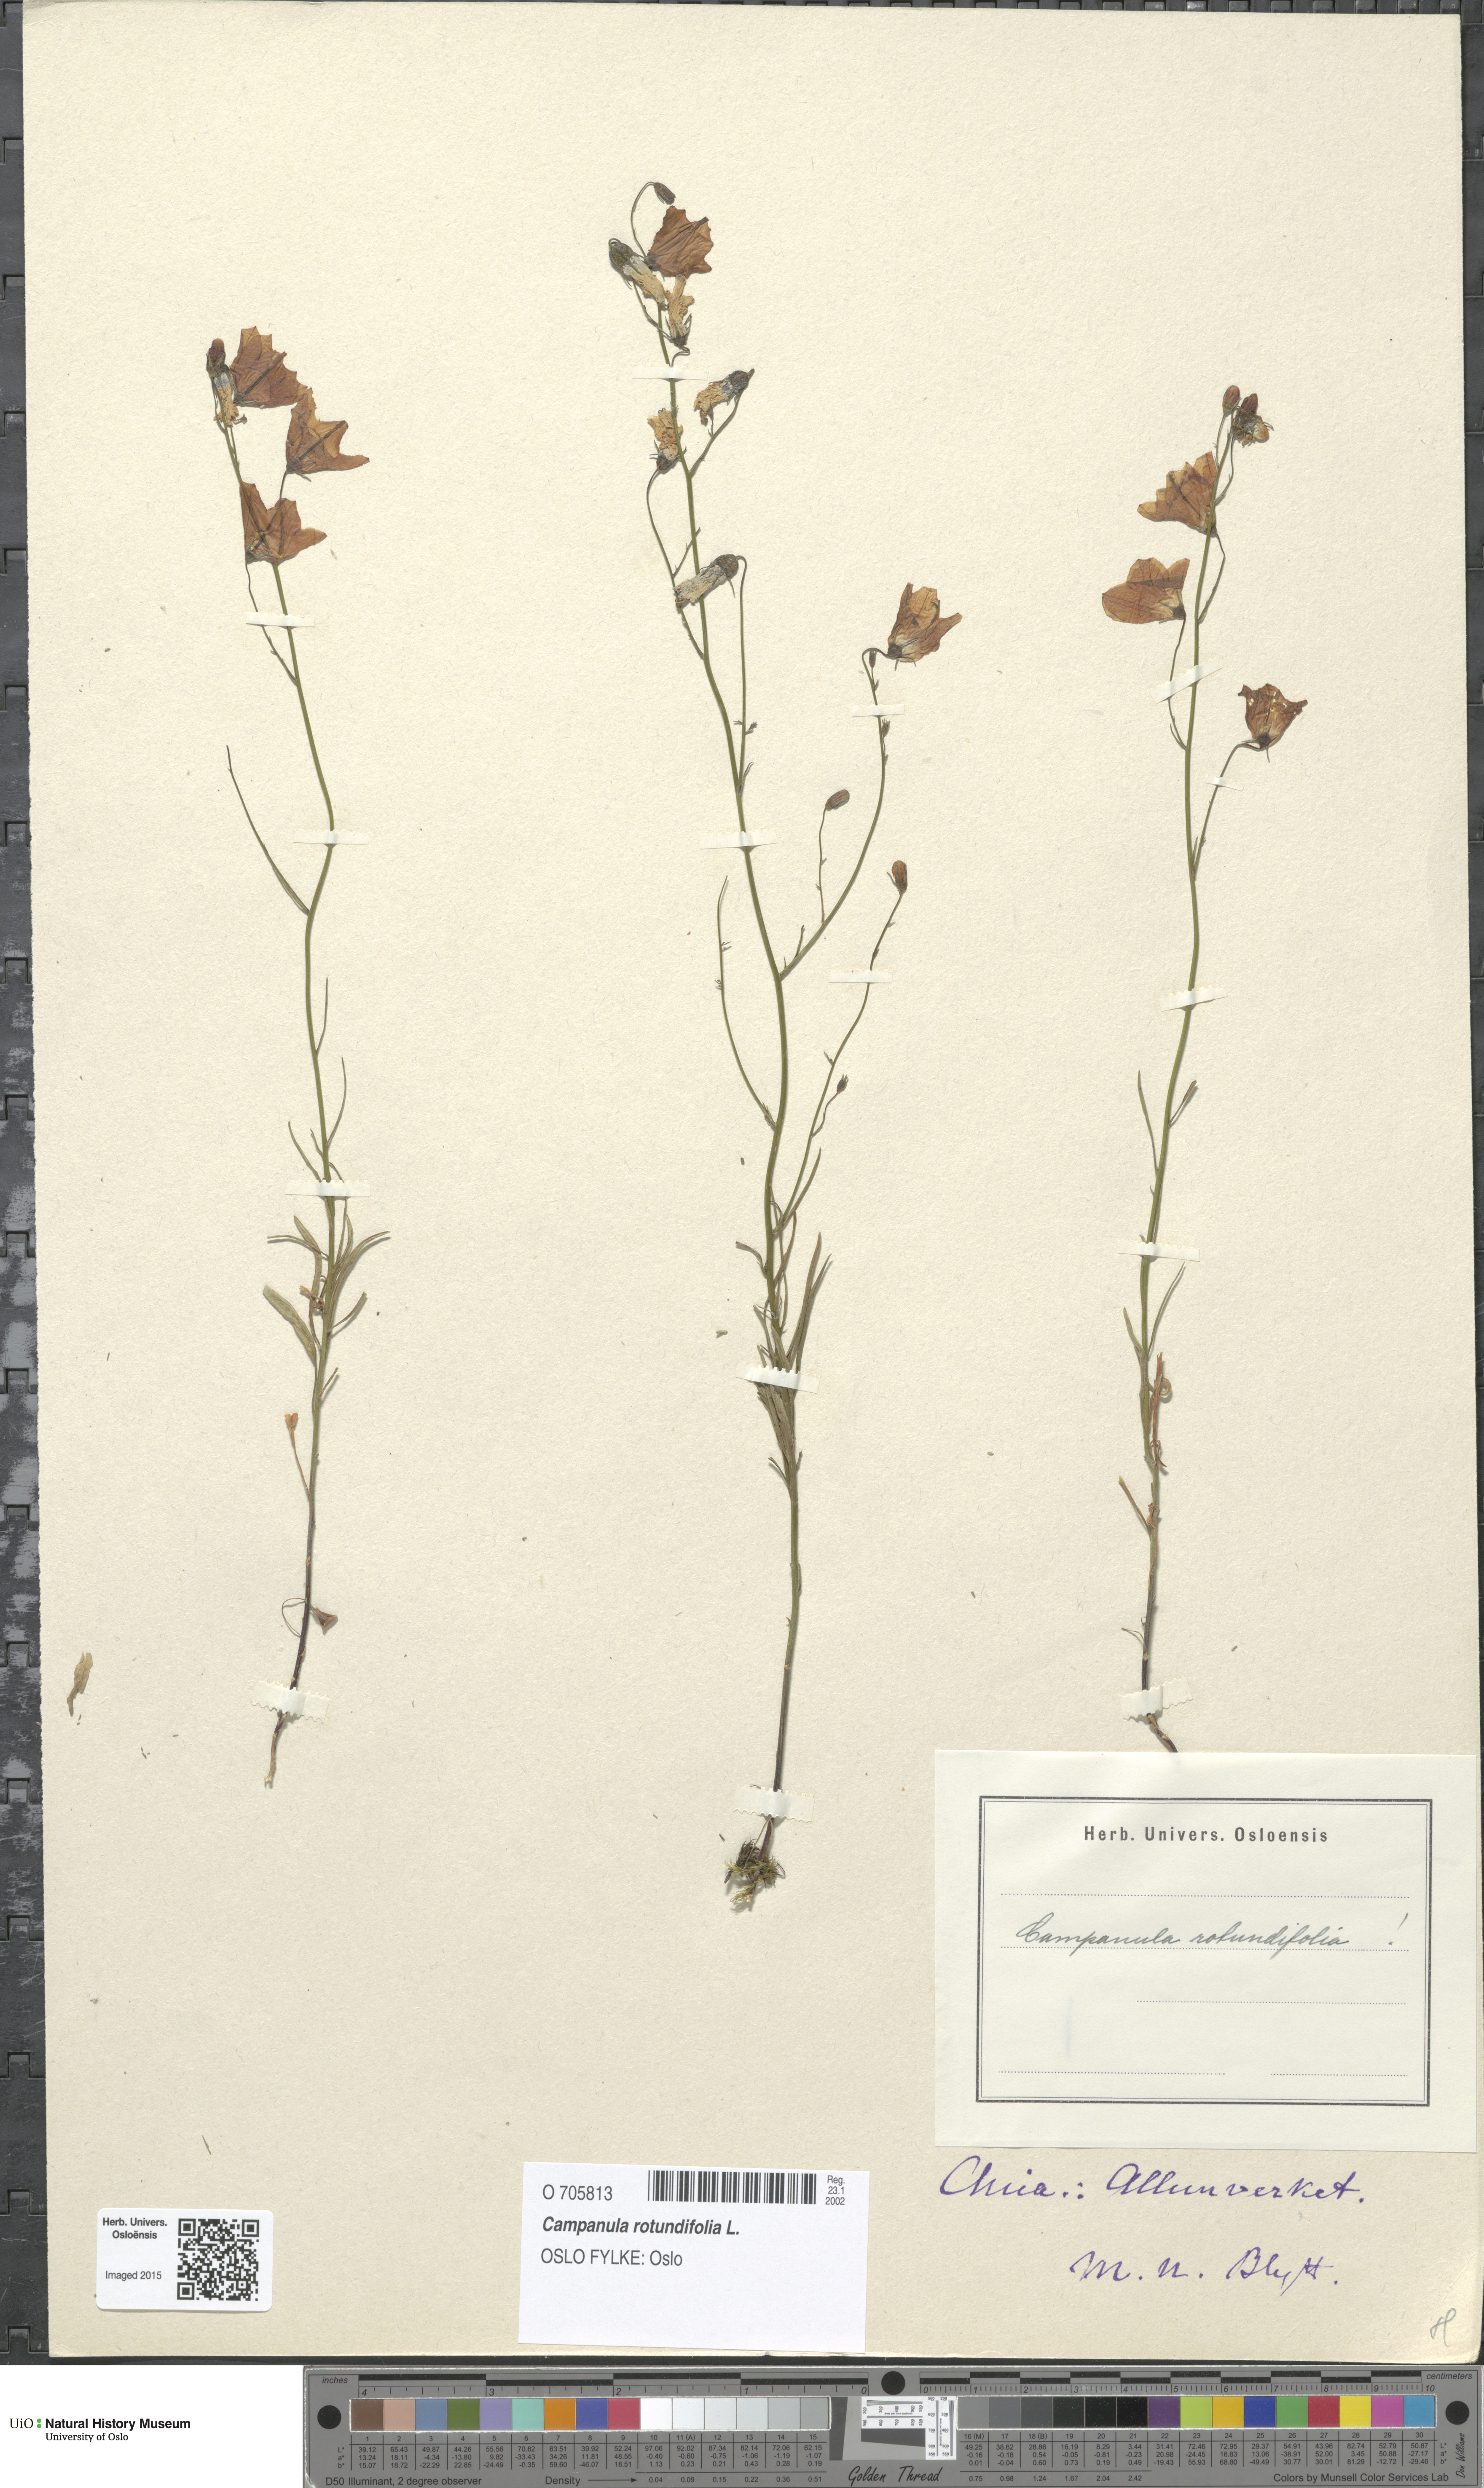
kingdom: Plantae
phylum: Tracheophyta
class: Magnoliopsida
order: Asterales
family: Campanulaceae
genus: Campanula
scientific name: Campanula rotundifolia
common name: Harebell
